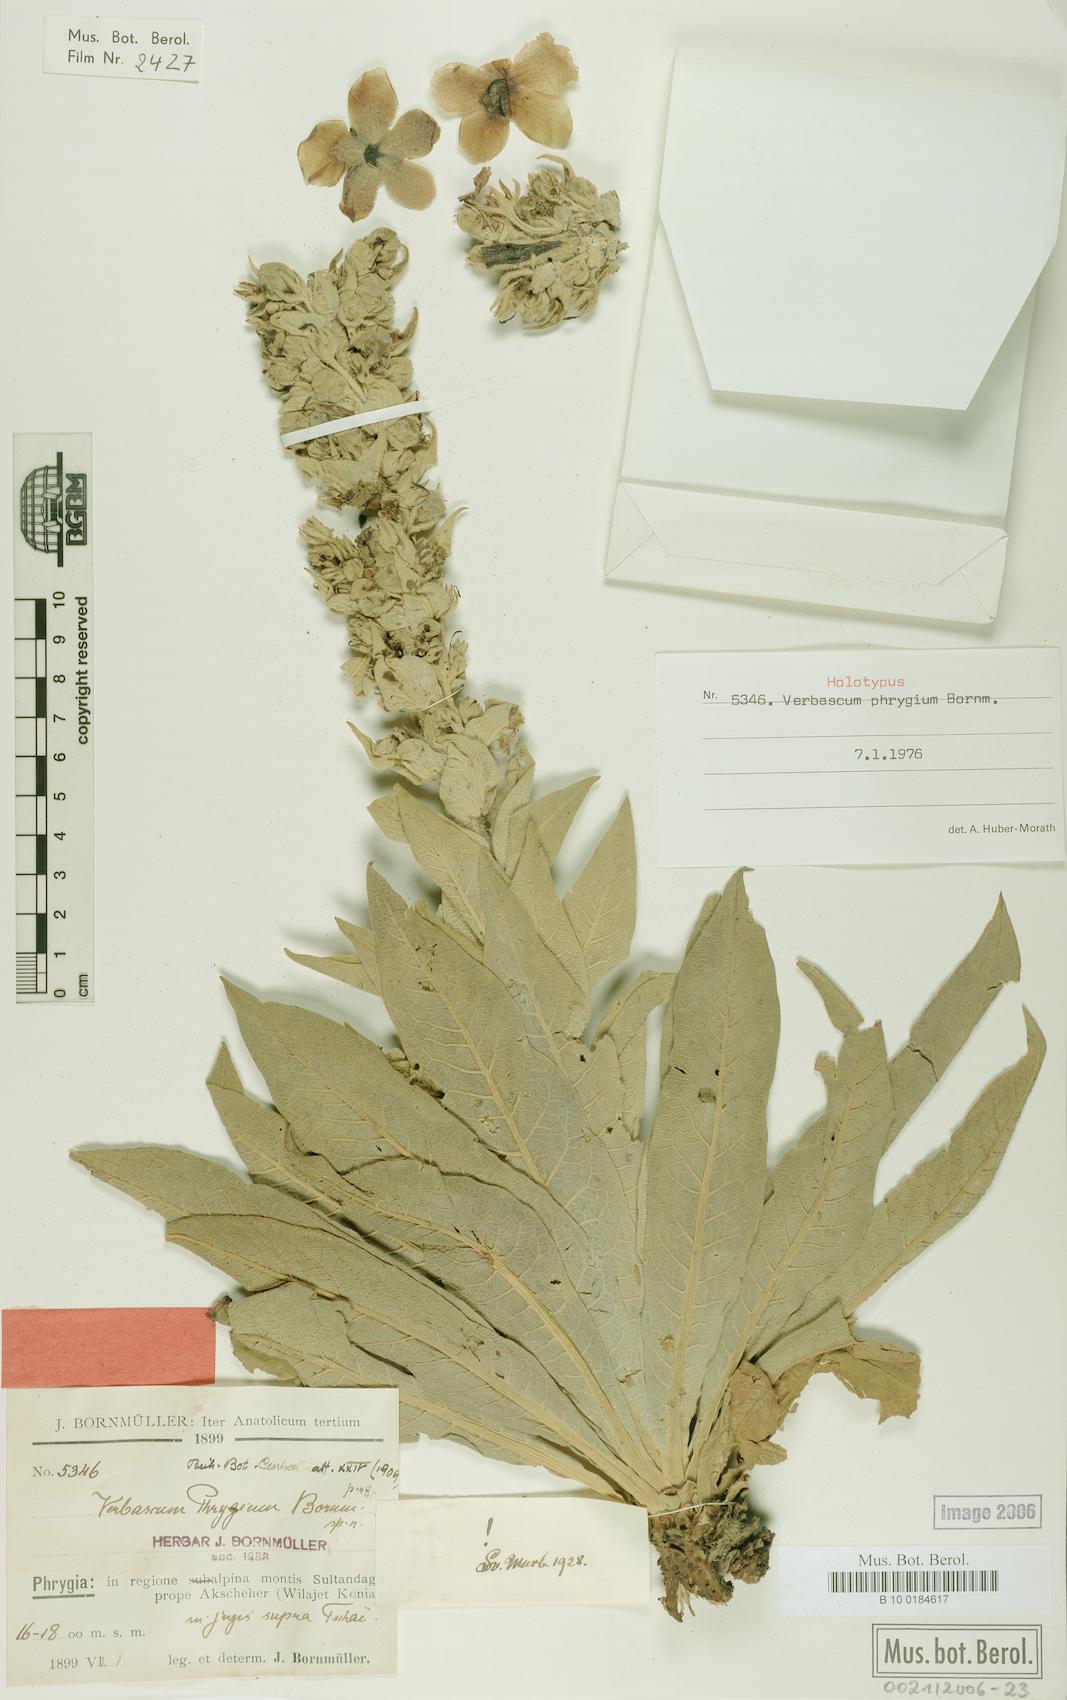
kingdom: Plantae
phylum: Tracheophyta
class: Magnoliopsida
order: Lamiales
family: Scrophulariaceae
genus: Verbascum
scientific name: Verbascum phrygium
